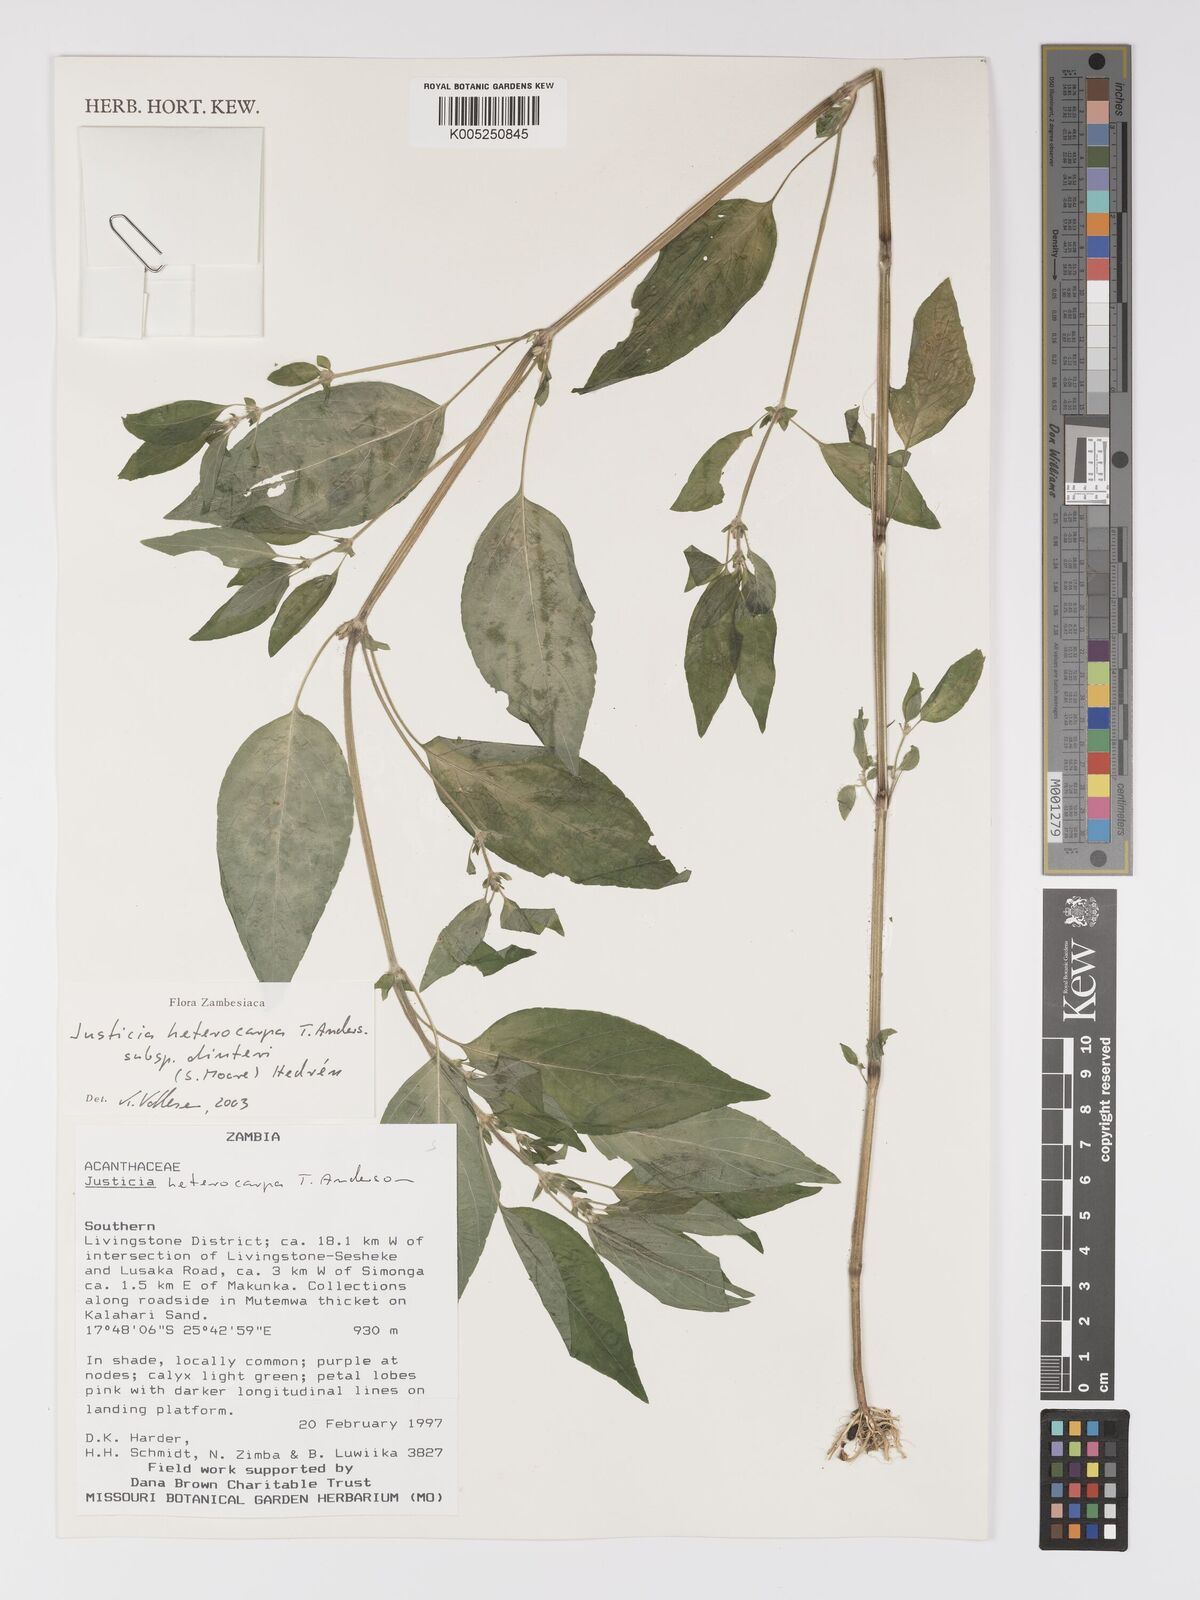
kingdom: Plantae
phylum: Tracheophyta
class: Magnoliopsida
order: Lamiales
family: Acanthaceae
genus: Justicia
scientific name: Justicia heterocarpa
